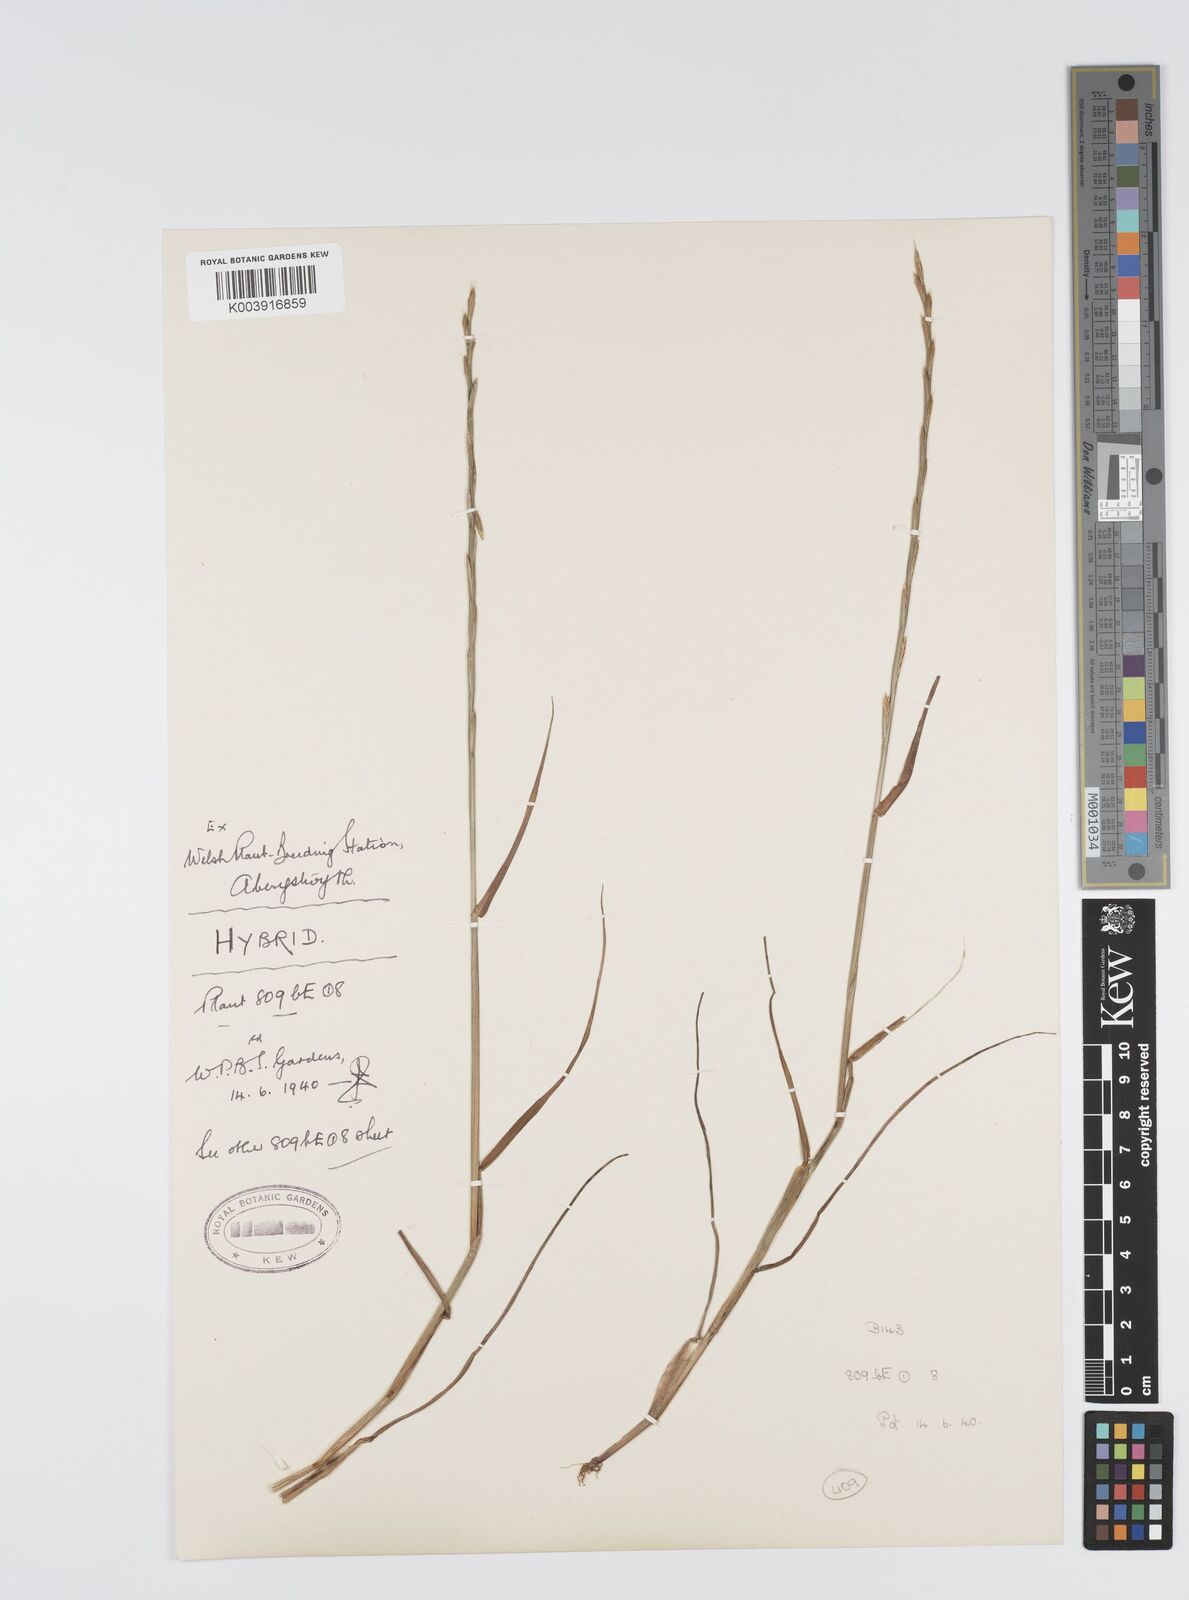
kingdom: Plantae
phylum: Tracheophyta
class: Liliopsida
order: Poales
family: Poaceae
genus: Lolium
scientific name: Lolium multiflorum
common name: Annual ryegrass
